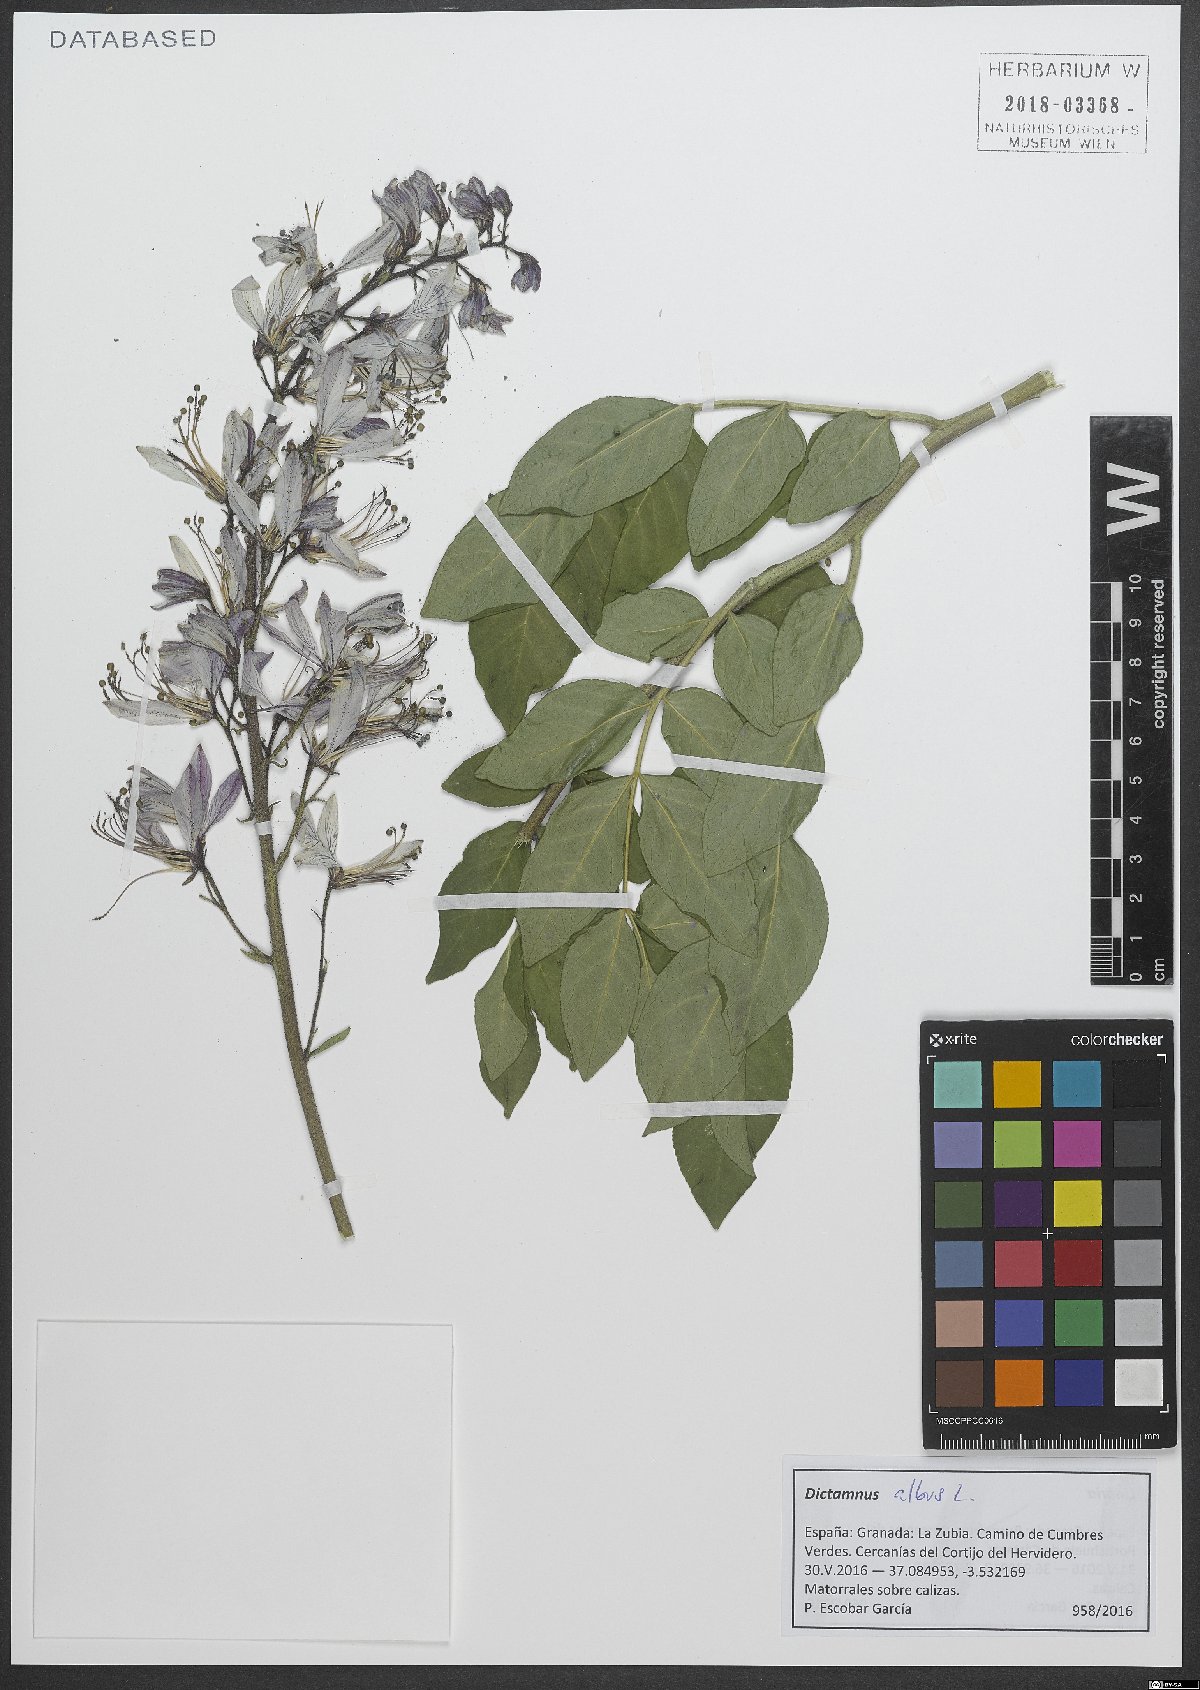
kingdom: Plantae
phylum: Tracheophyta
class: Magnoliopsida
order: Sapindales
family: Rutaceae
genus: Dictamnus
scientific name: Dictamnus albus
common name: Gasplant
